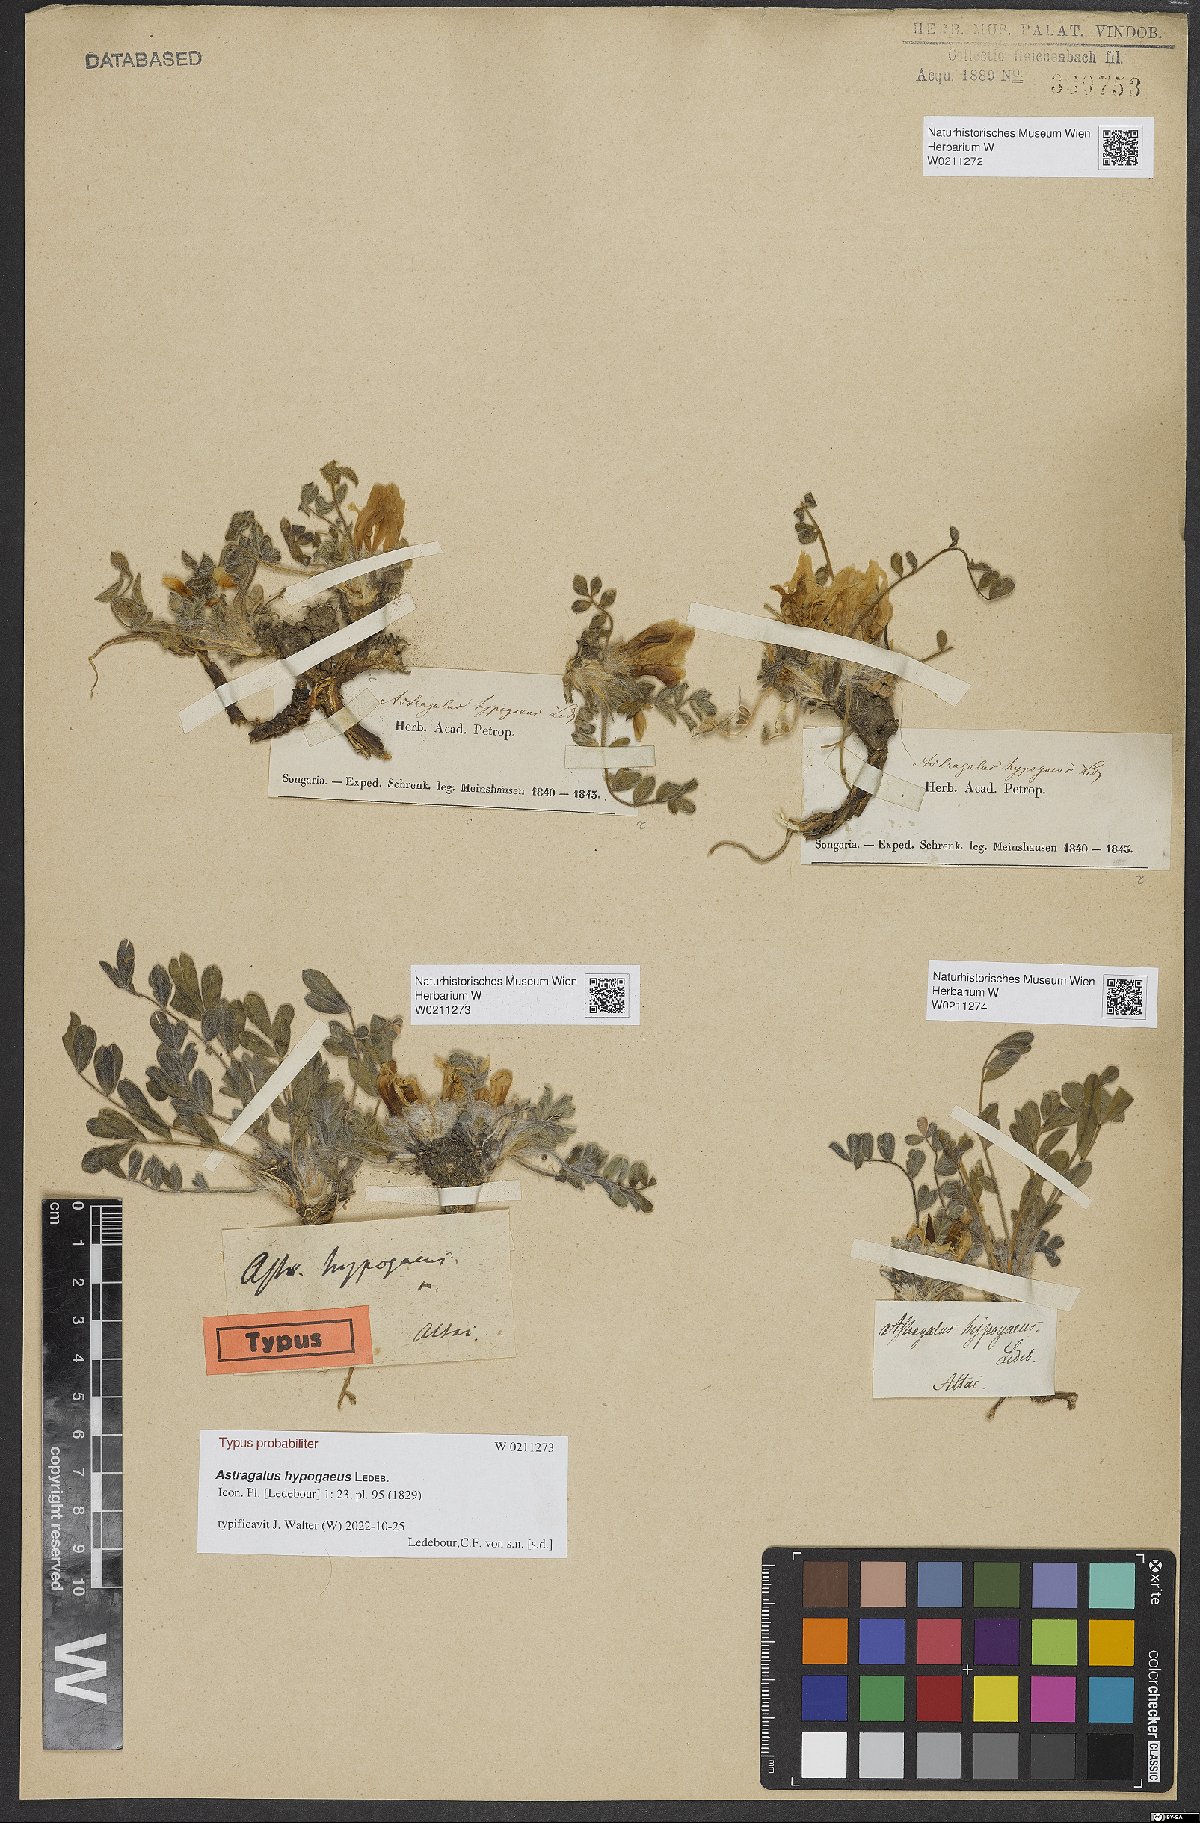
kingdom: Plantae
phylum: Tracheophyta
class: Magnoliopsida
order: Fabales
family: Fabaceae
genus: Astragalus
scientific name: Astragalus hypogaeus
